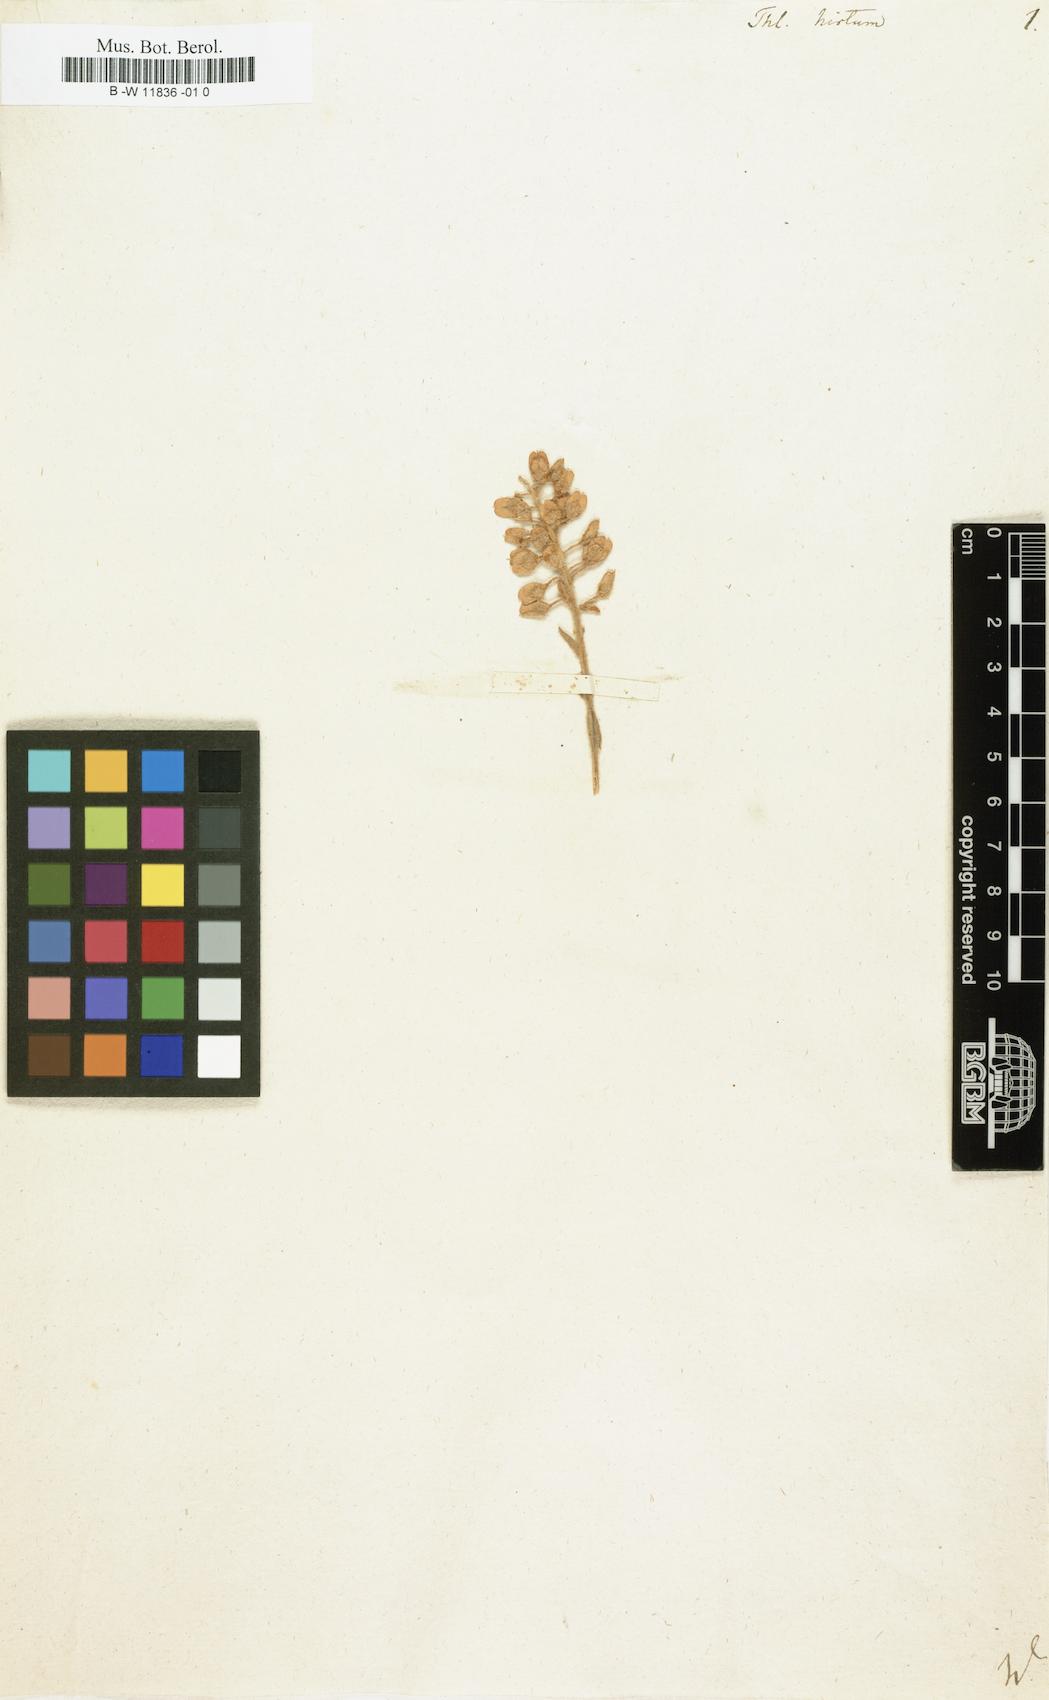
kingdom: Plantae
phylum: Tracheophyta
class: Magnoliopsida
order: Brassicales
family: Brassicaceae
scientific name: Brassicaceae
